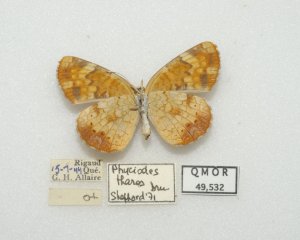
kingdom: Animalia
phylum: Arthropoda
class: Insecta
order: Lepidoptera
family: Nymphalidae
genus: Phyciodes
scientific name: Phyciodes tharos
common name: Northern Crescent
